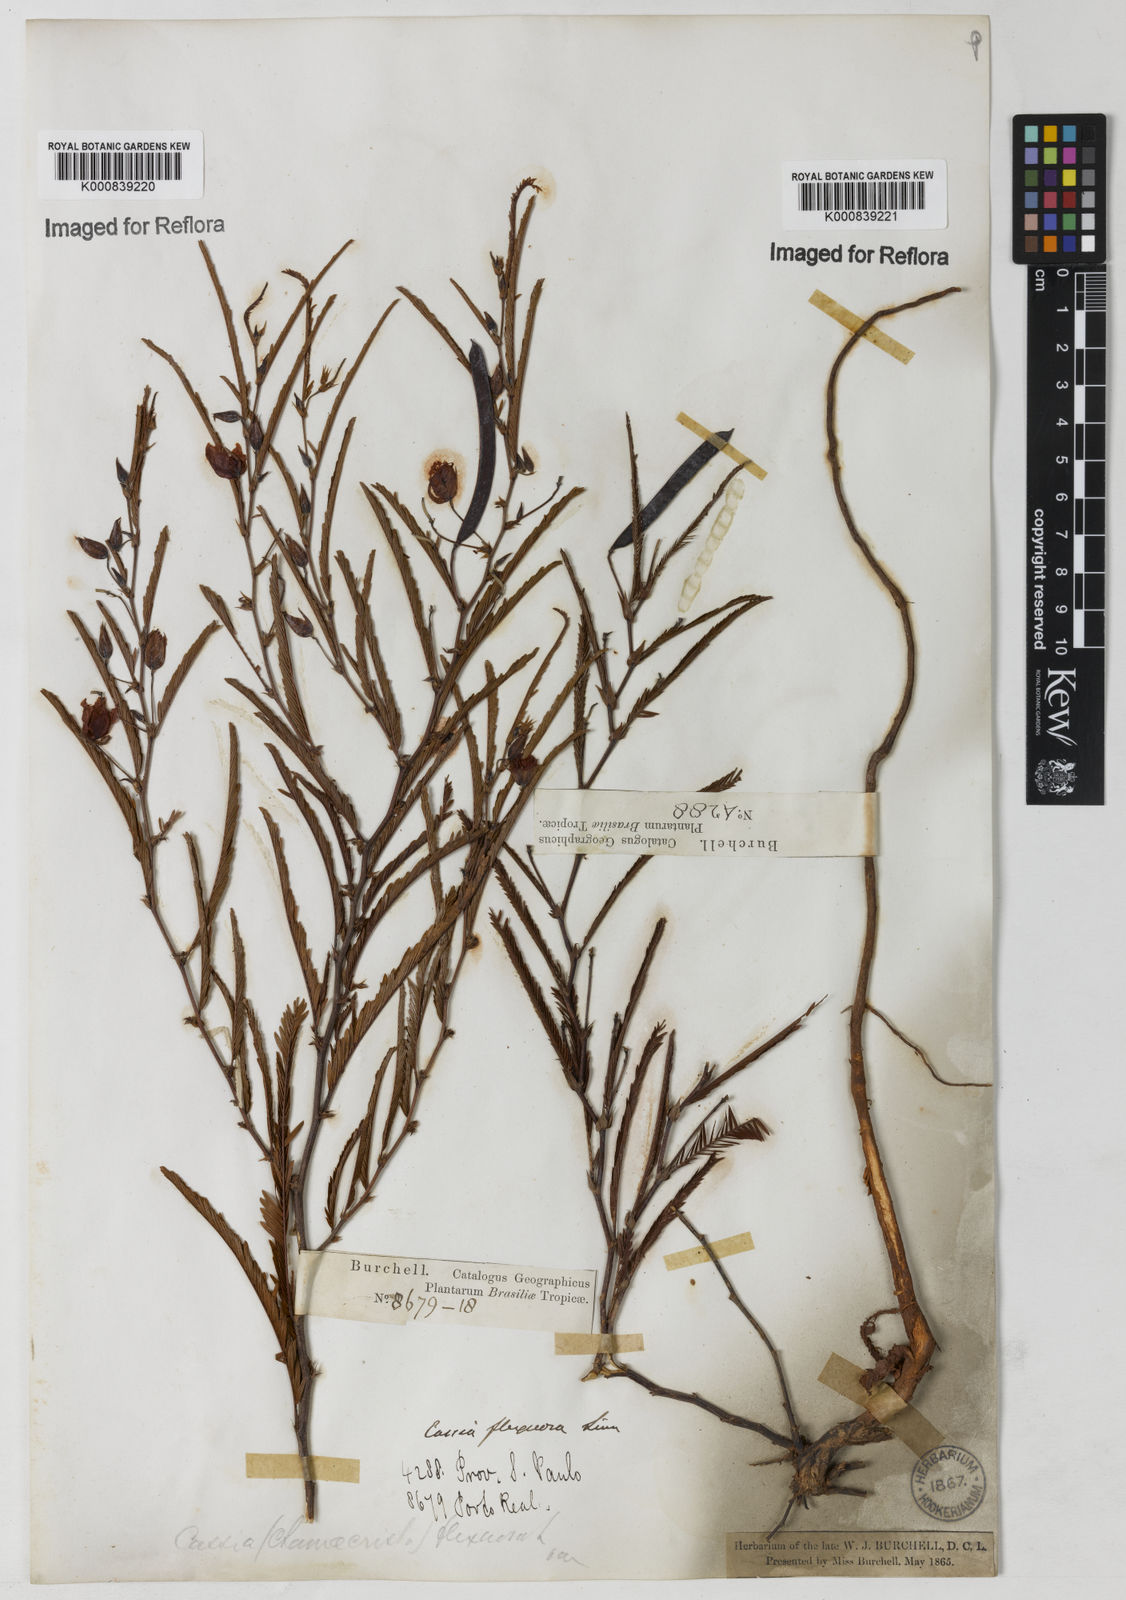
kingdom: Plantae
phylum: Tracheophyta
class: Magnoliopsida
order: Fabales
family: Fabaceae
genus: Chamaecrista
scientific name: Chamaecrista flexuosa
